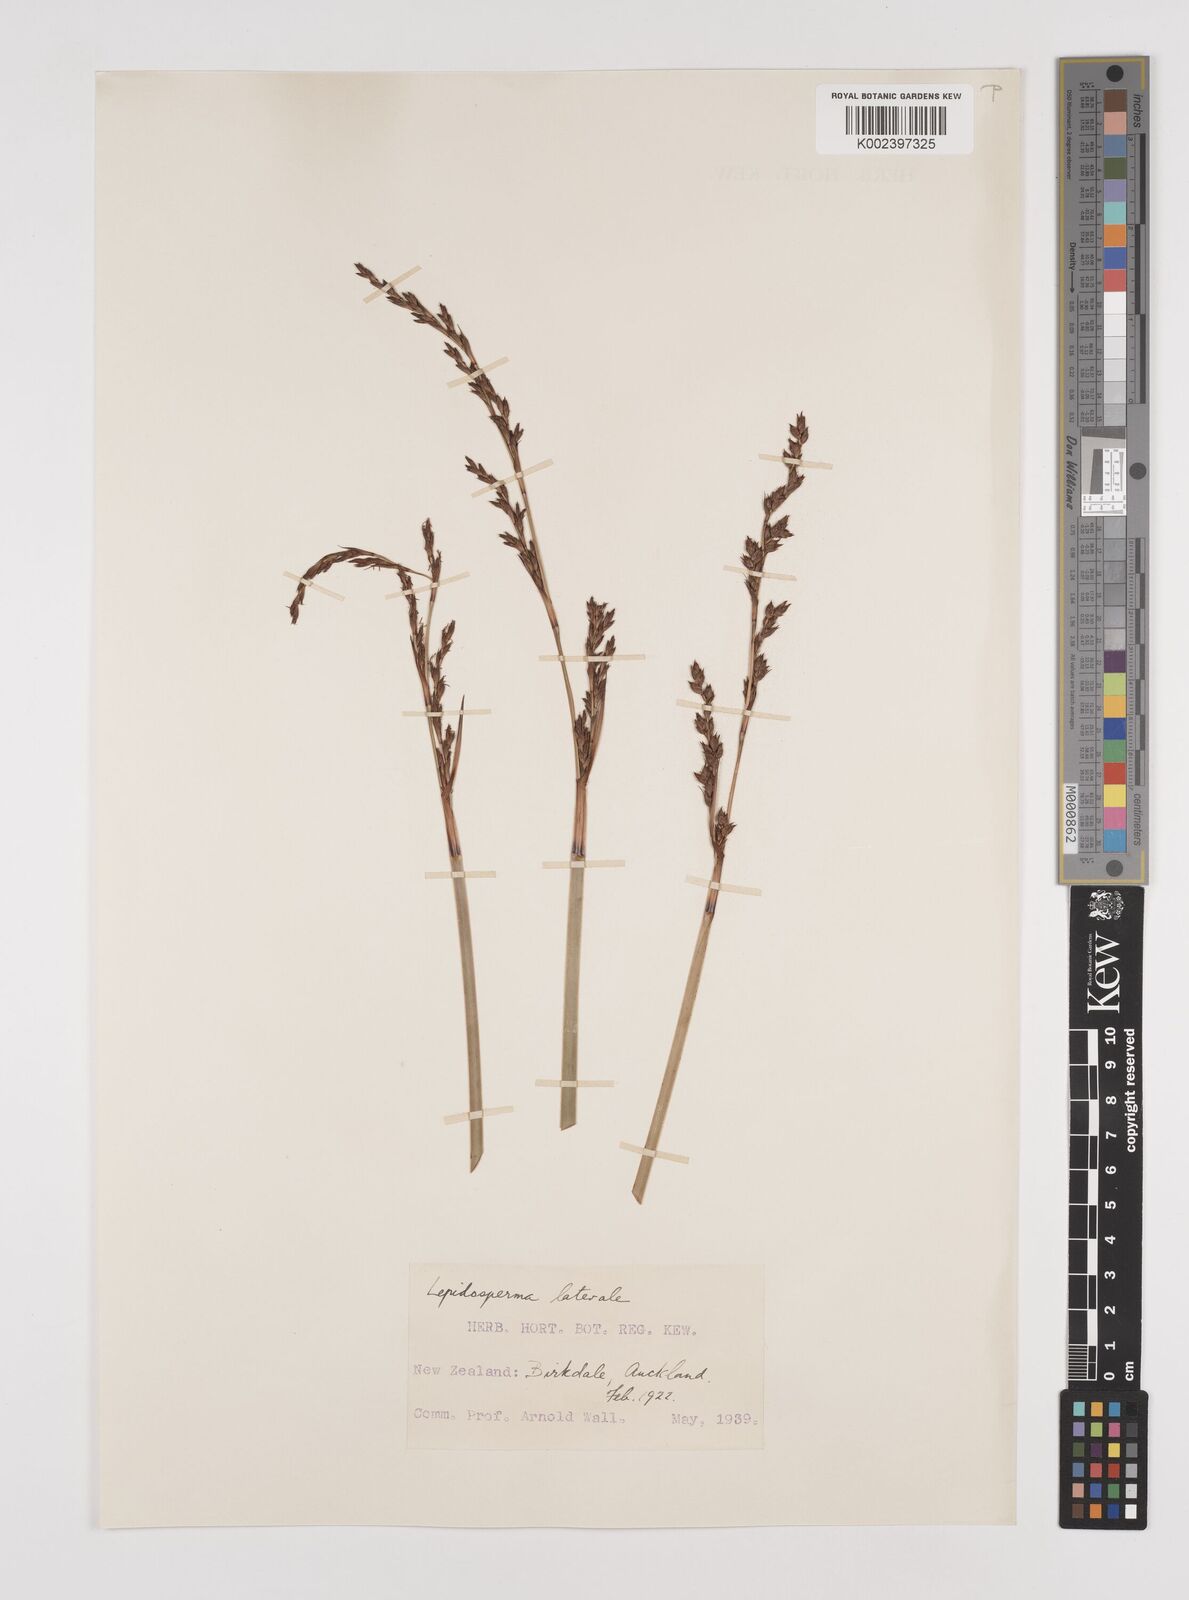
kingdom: Plantae
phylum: Tracheophyta
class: Liliopsida
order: Poales
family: Cyperaceae
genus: Lepidosperma
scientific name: Lepidosperma laterale
